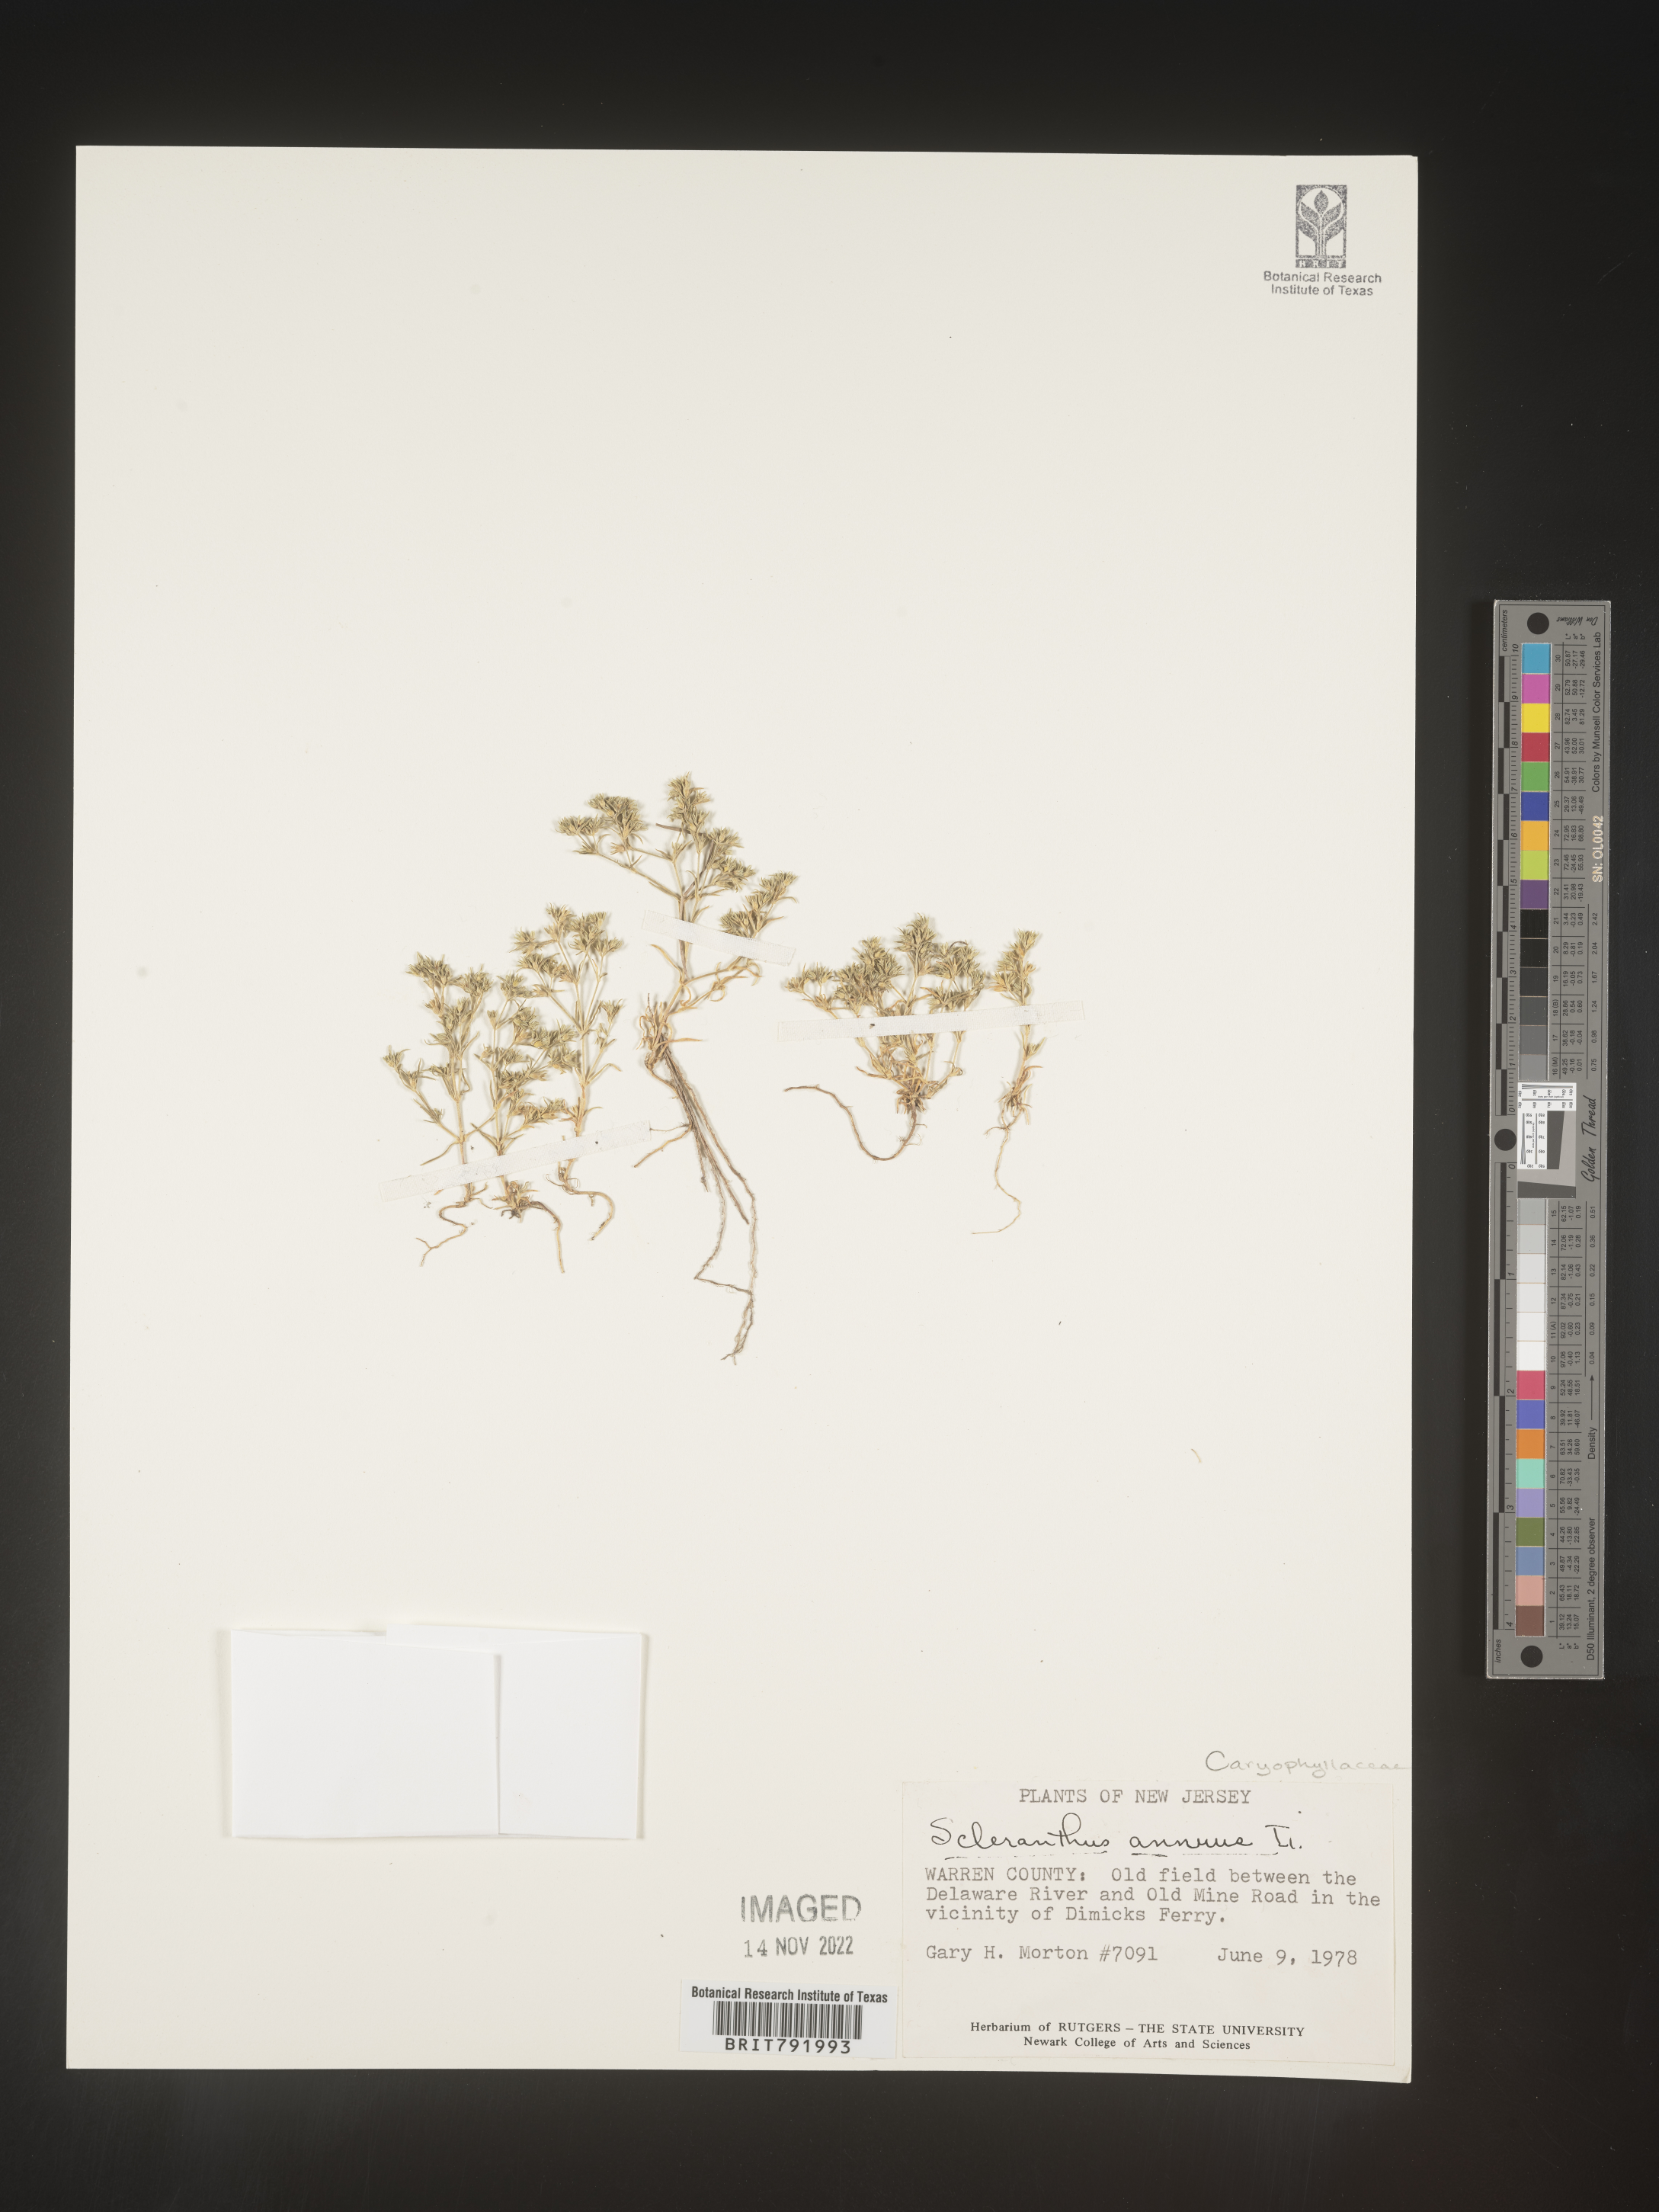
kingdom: Plantae
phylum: Tracheophyta
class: Magnoliopsida
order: Caryophyllales
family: Caryophyllaceae
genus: Scleranthus
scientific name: Scleranthus
